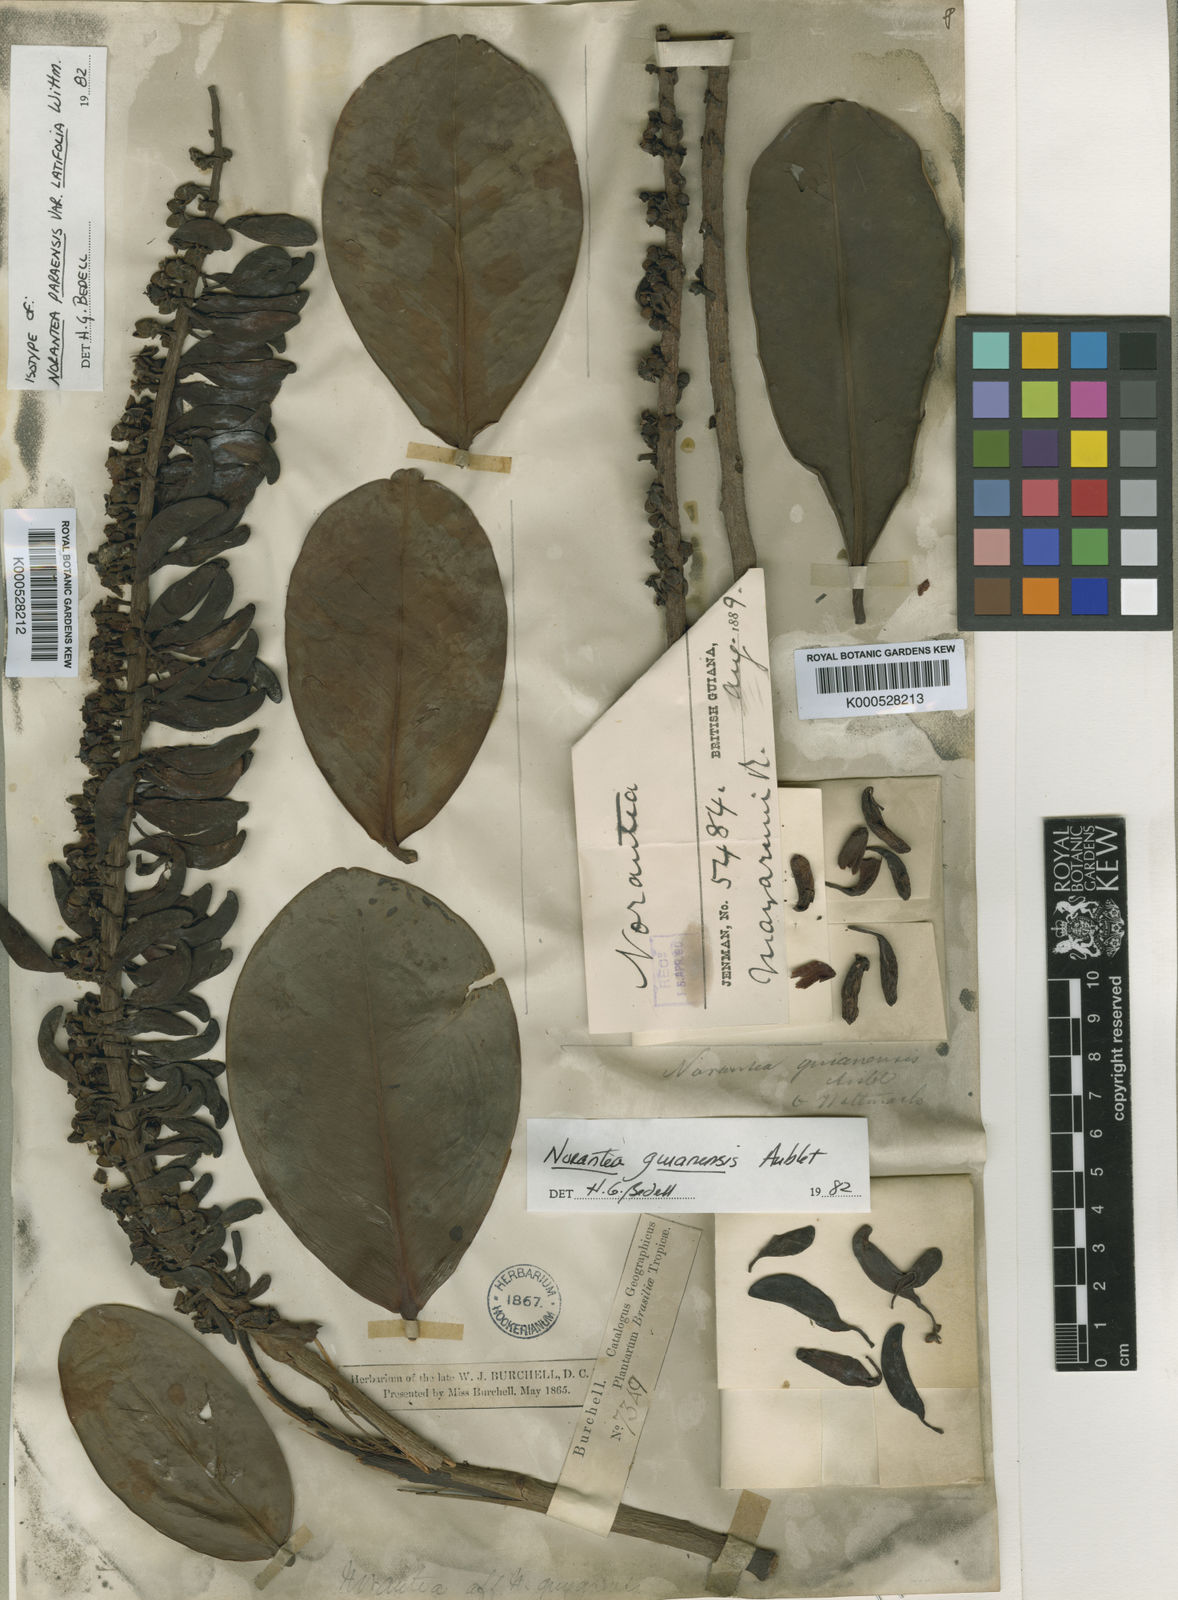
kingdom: Plantae
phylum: Tracheophyta
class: Magnoliopsida
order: Ericales
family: Marcgraviaceae
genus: Norantea
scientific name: Norantea guianensis
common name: Red hot poker vine
